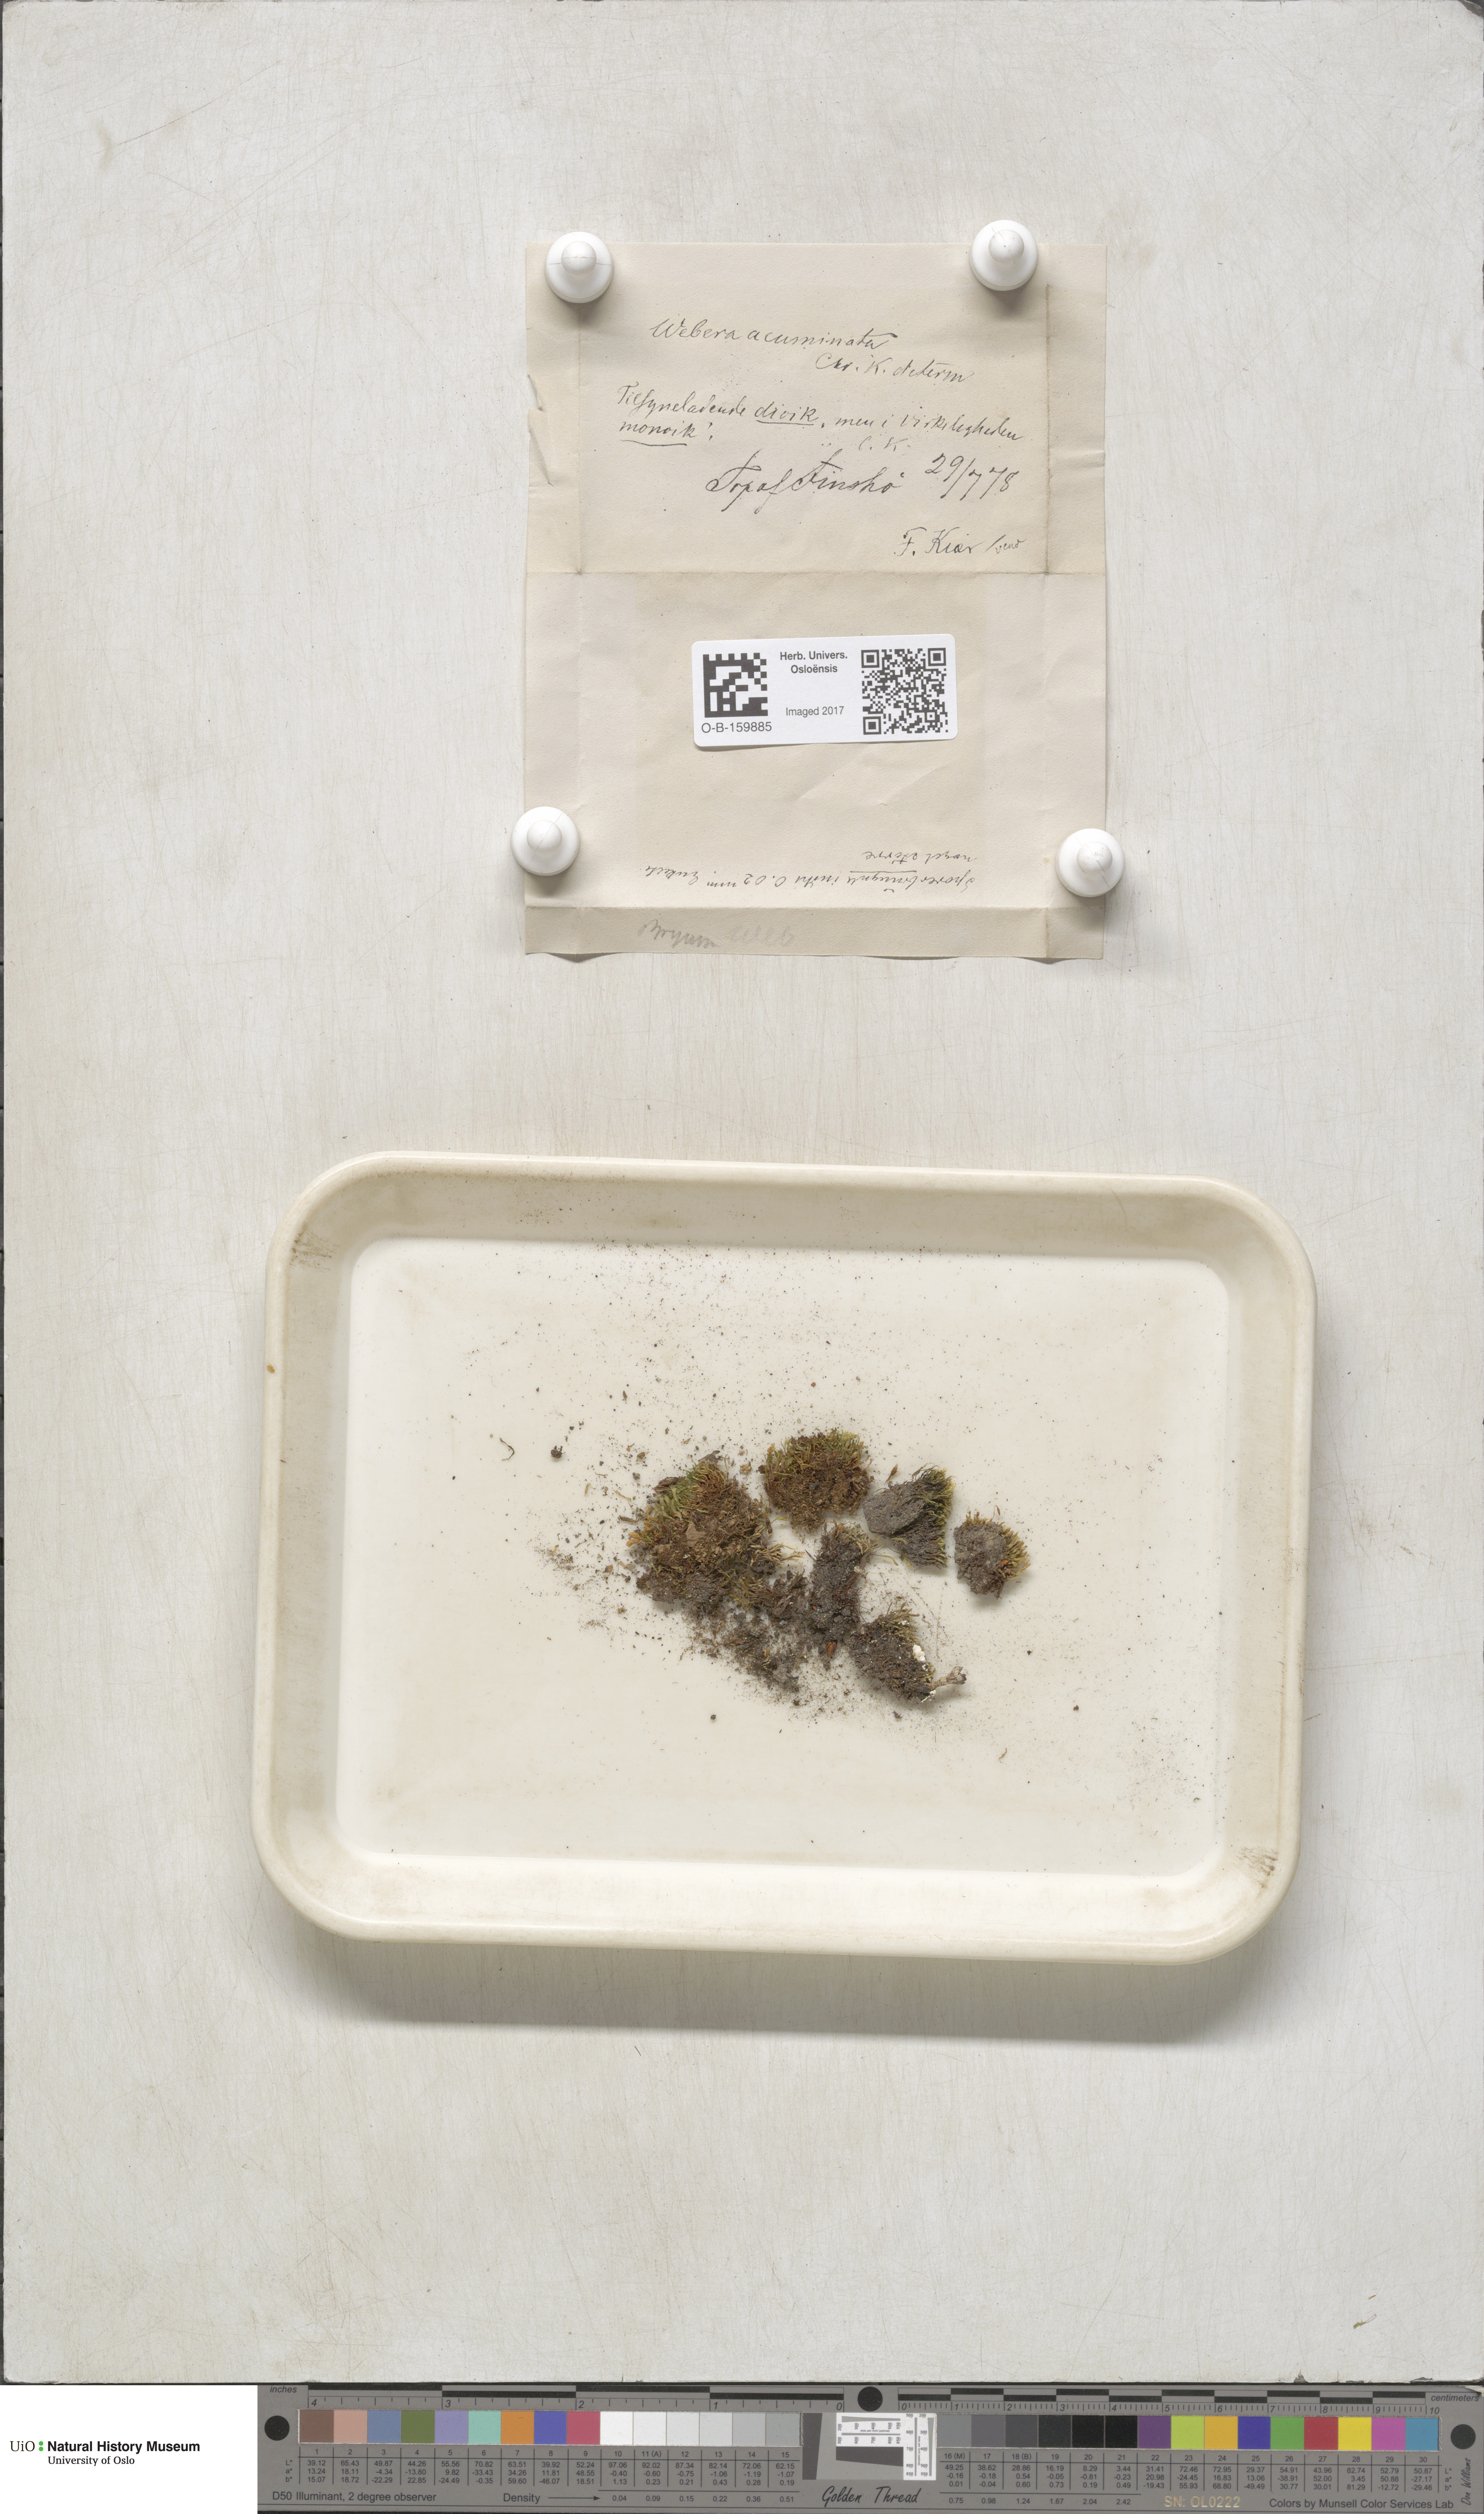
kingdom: Plantae
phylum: Bryophyta
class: Bryopsida
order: Bryales
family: Mniaceae
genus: Pohlia
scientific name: Pohlia elongata
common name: Long-fruited thread-moss
